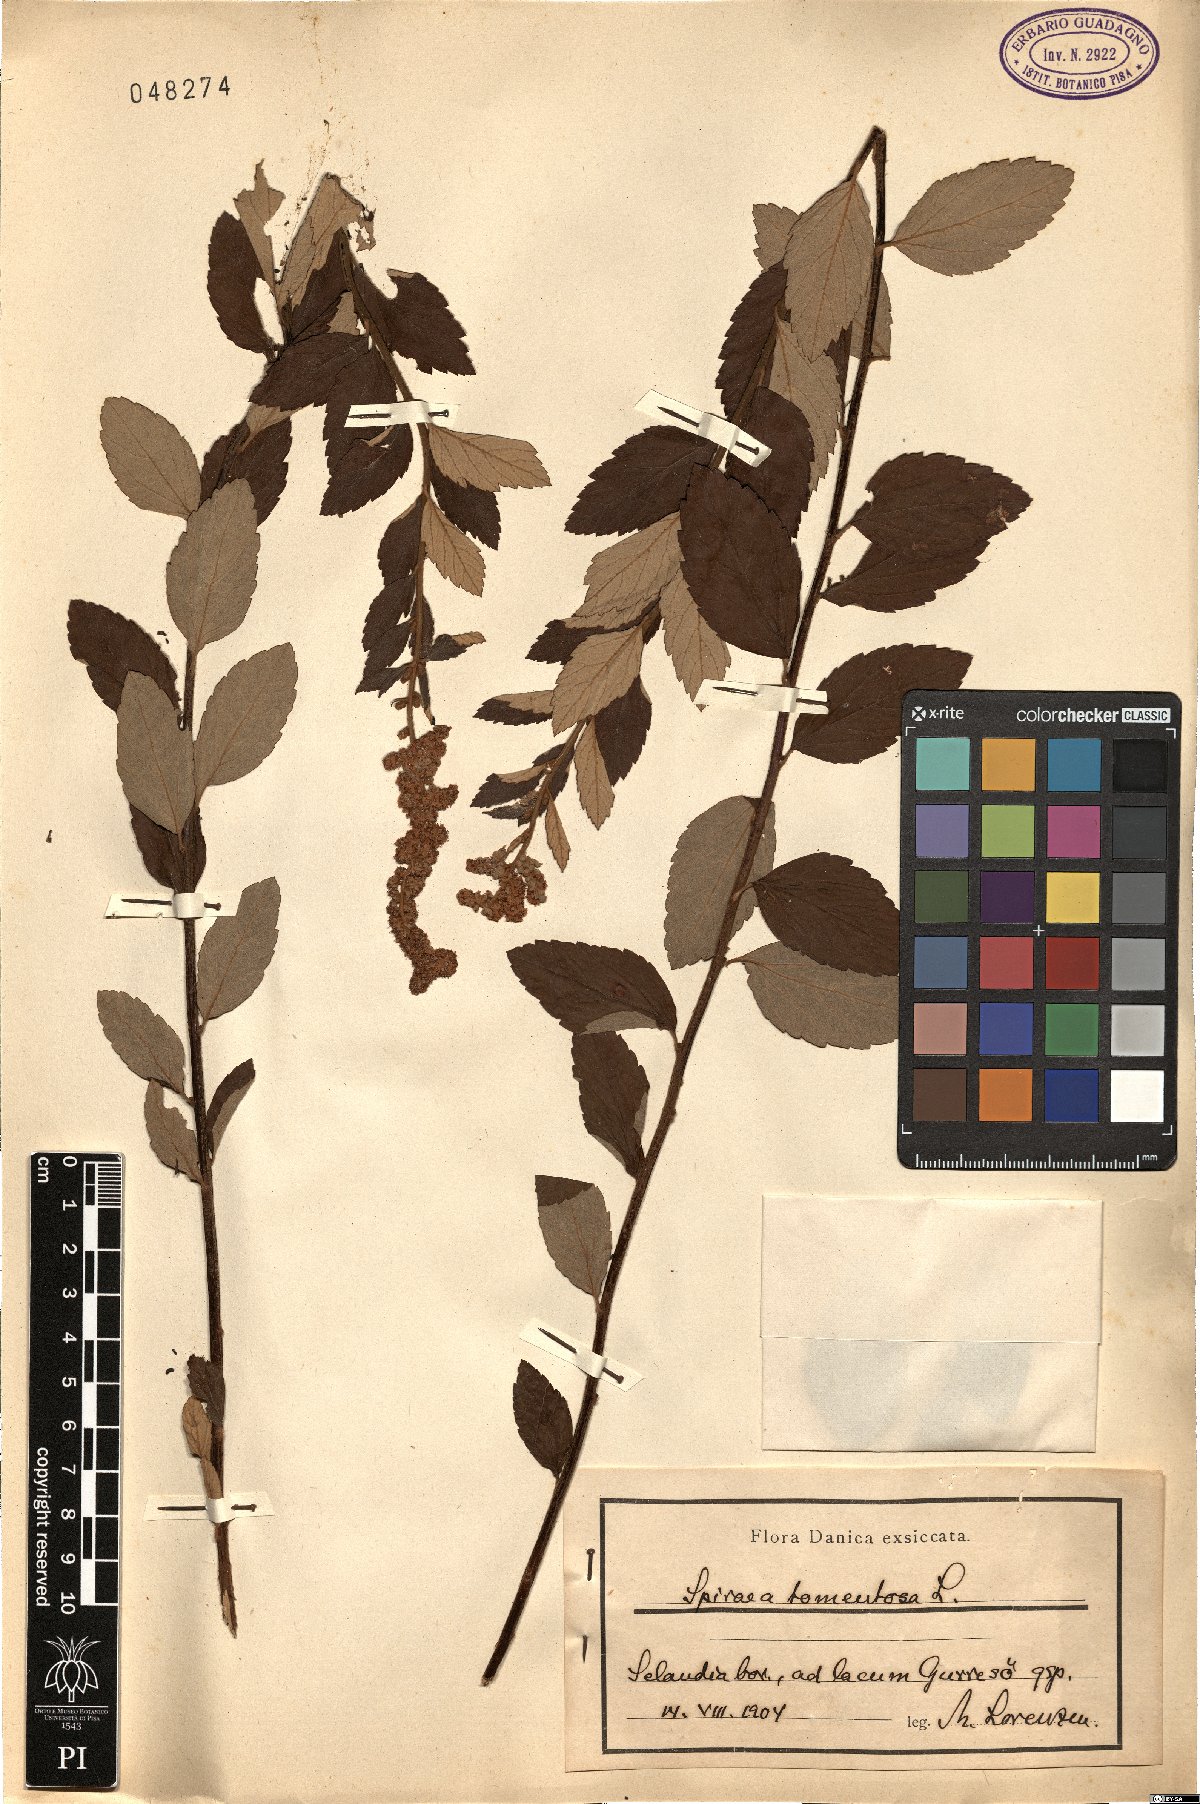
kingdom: Plantae
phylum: Tracheophyta
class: Magnoliopsida
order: Rosales
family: Rosaceae
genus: Spiraea
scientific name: Spiraea tomentosa
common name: Hardhack
